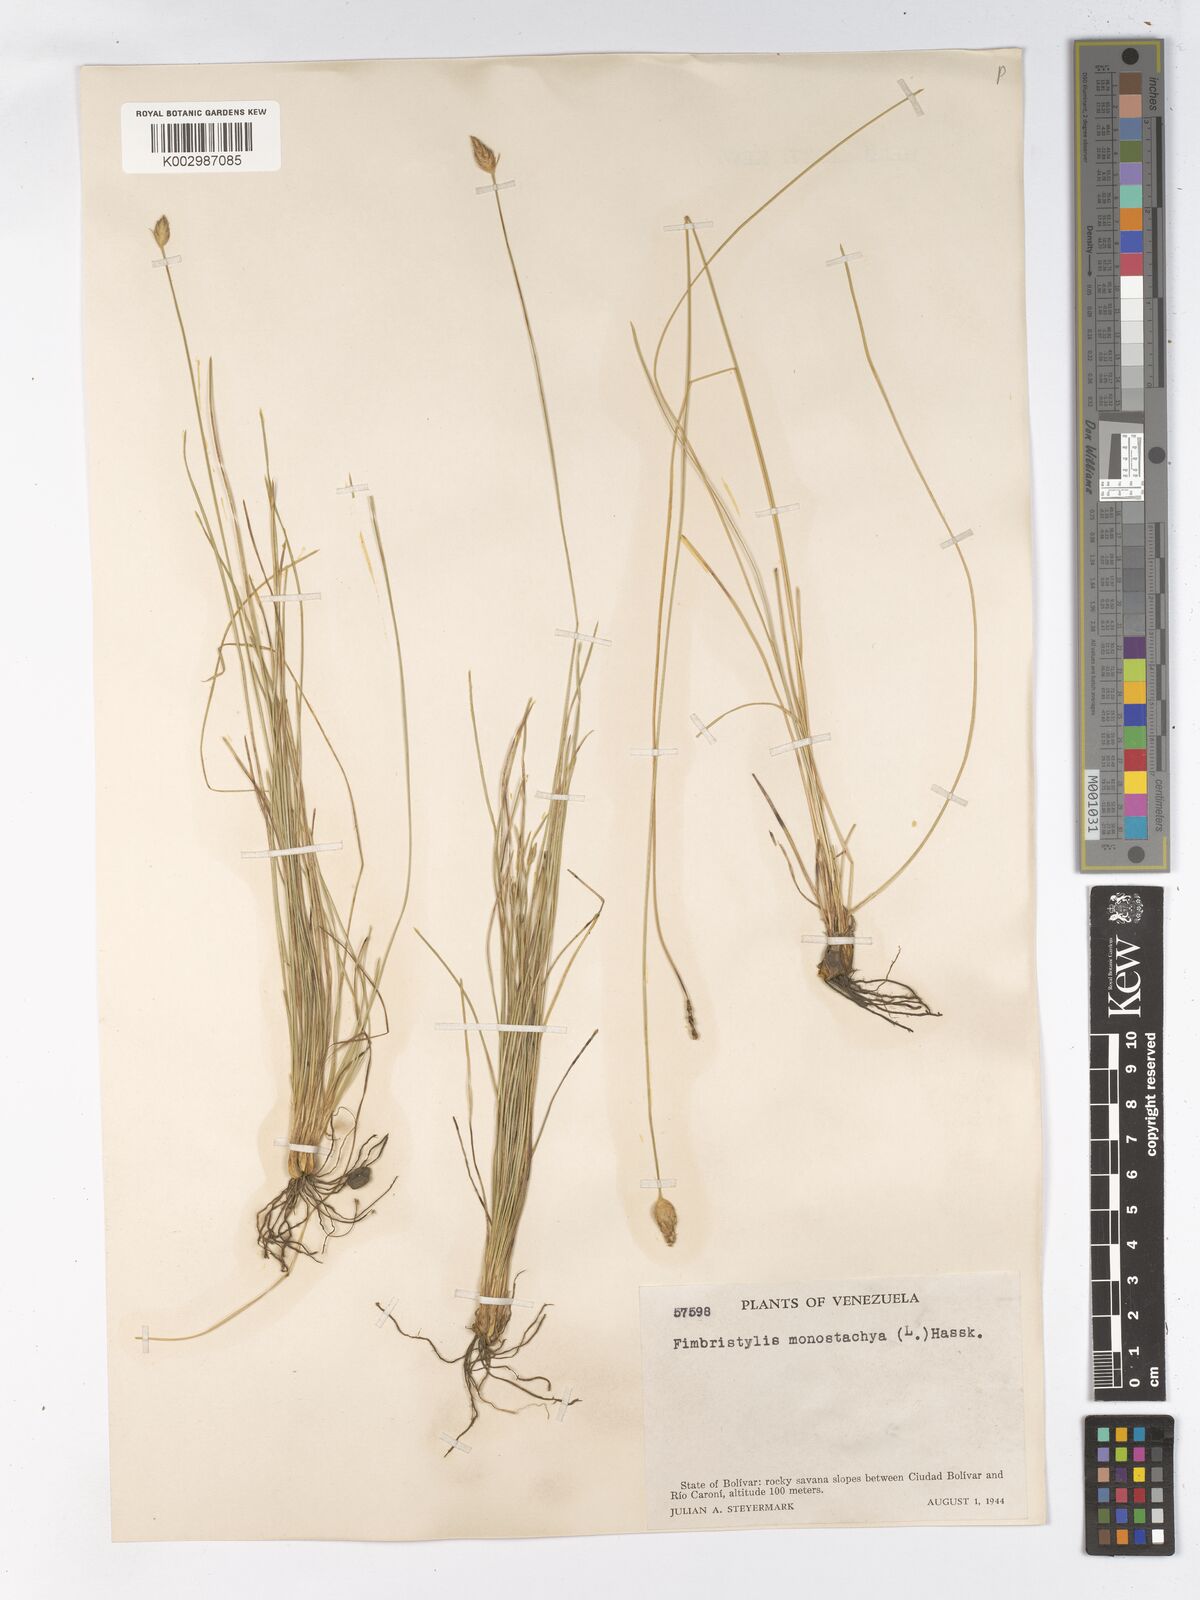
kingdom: Plantae
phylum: Tracheophyta
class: Liliopsida
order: Poales
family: Cyperaceae
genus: Abildgaardia
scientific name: Abildgaardia ovata
